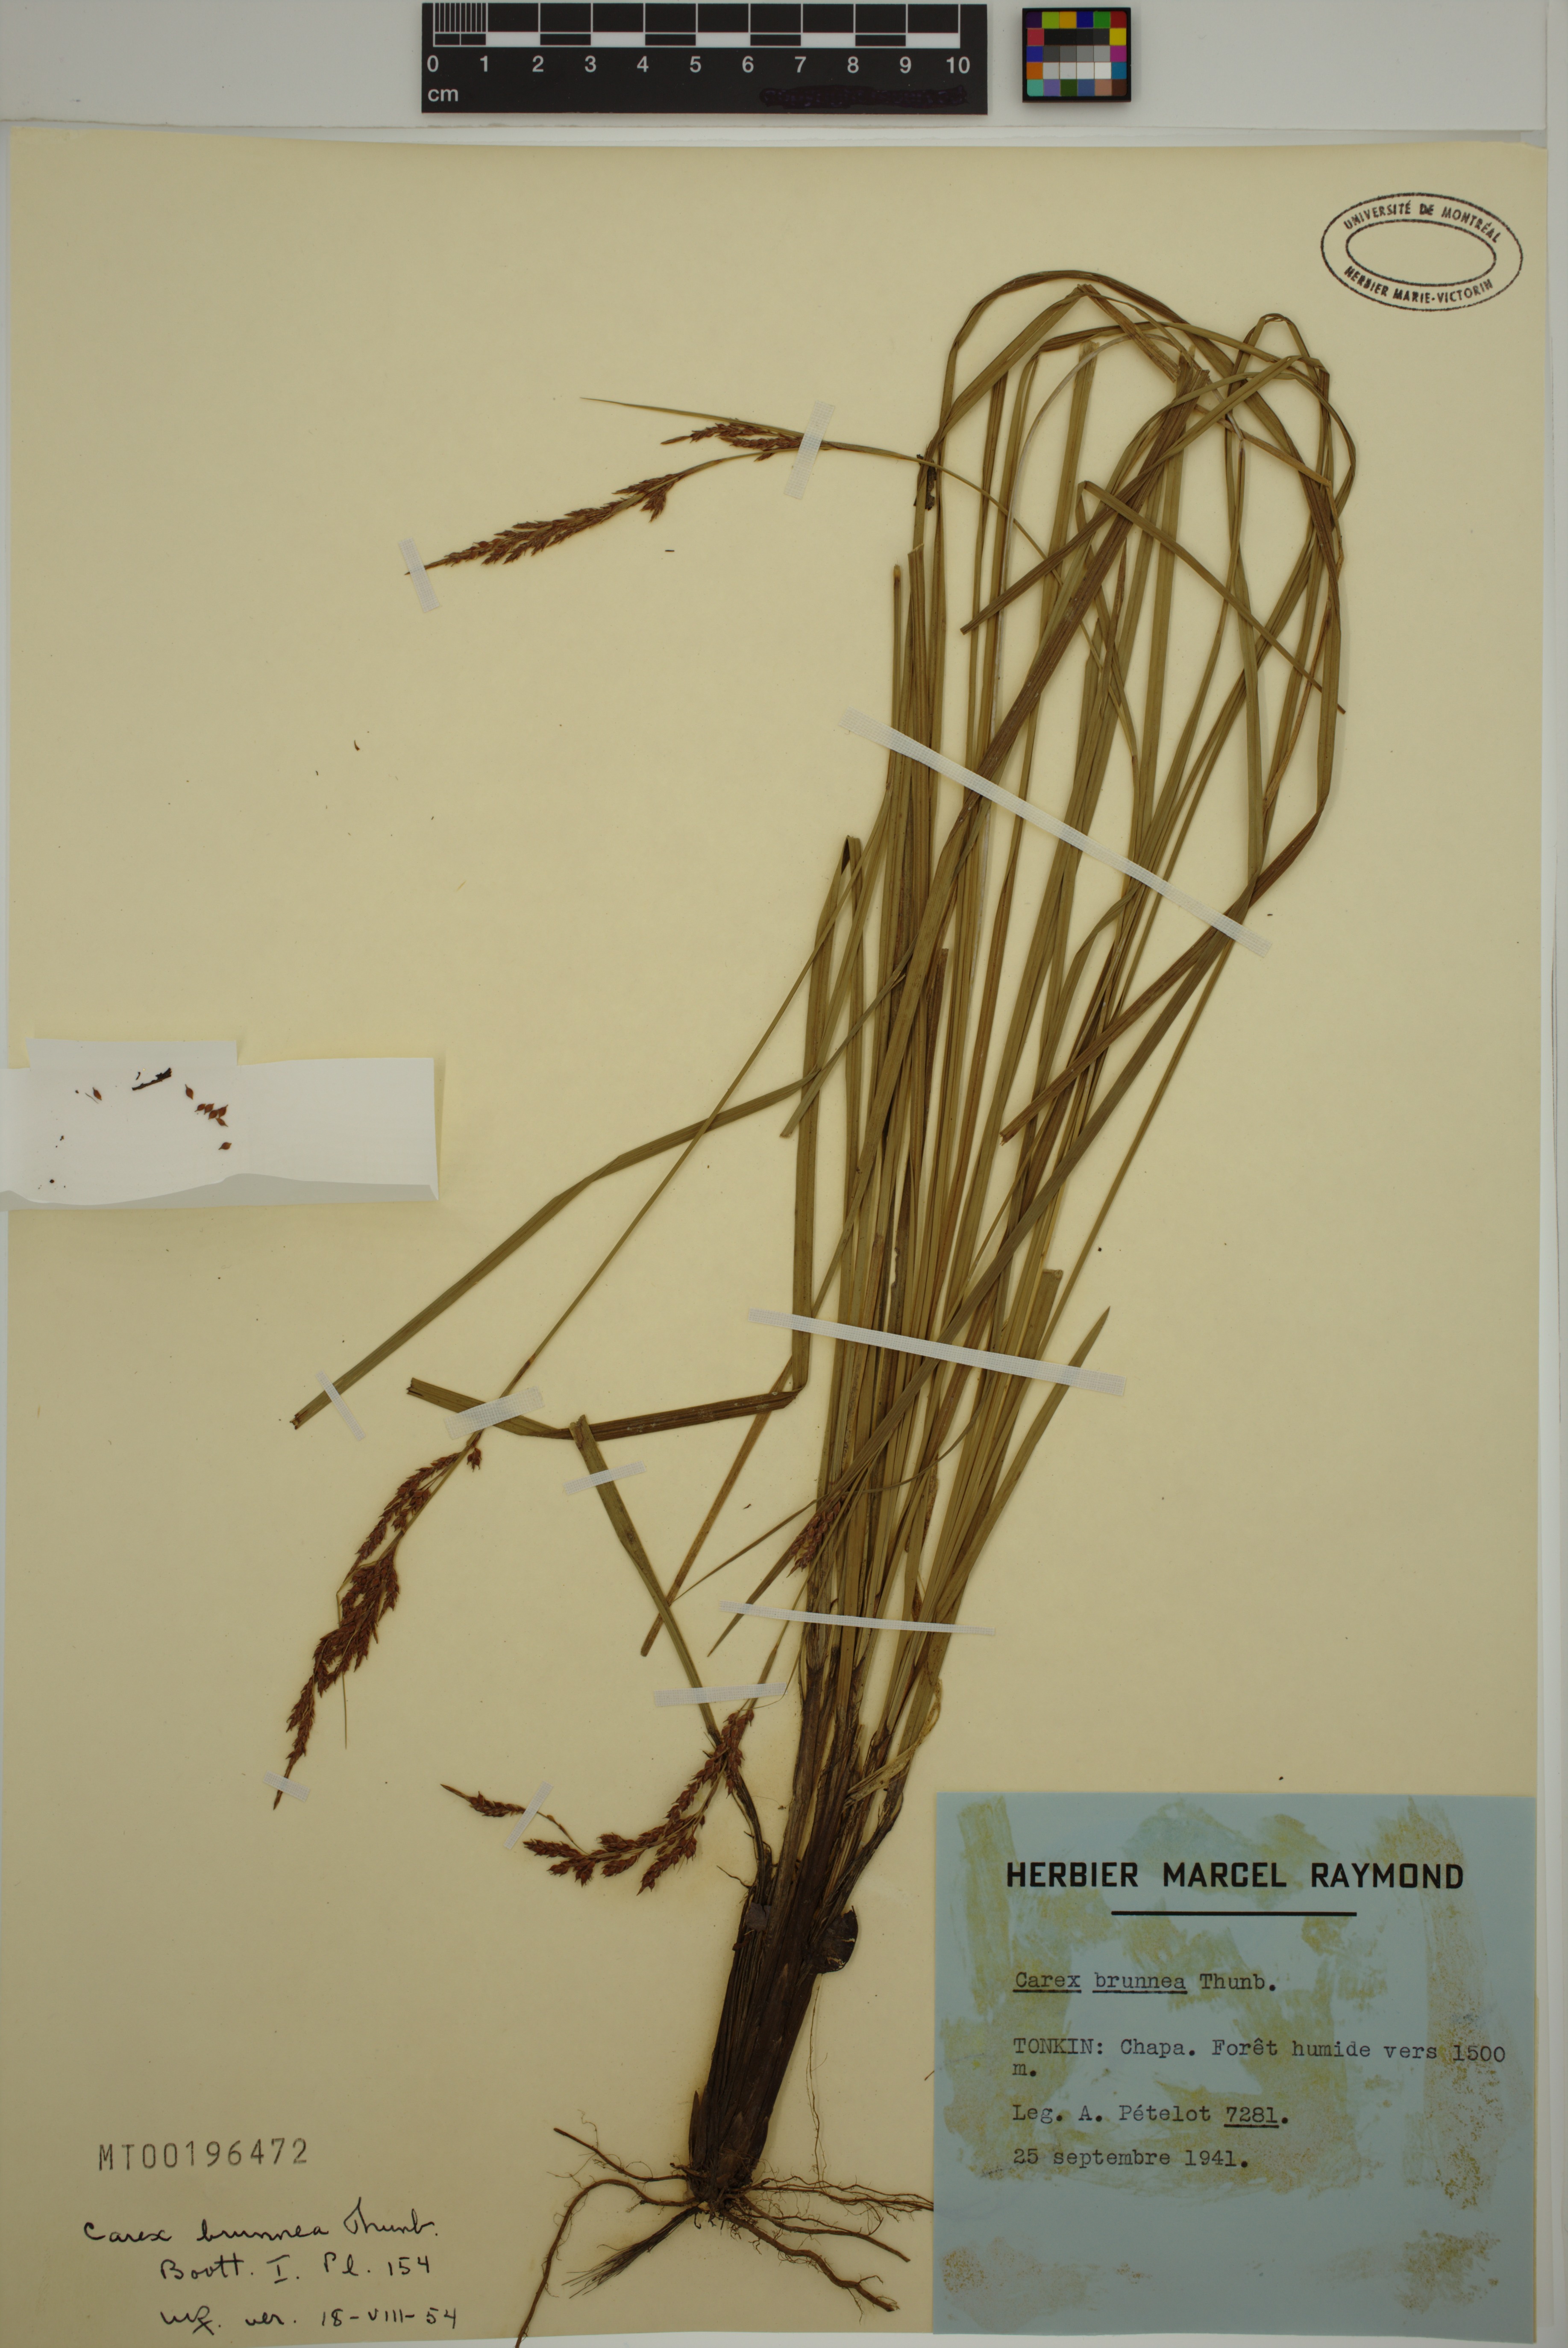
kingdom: Plantae
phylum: Tracheophyta
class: Liliopsida
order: Poales
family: Cyperaceae
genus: Carex
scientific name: Carex brunnea
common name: Greater brown sedge
